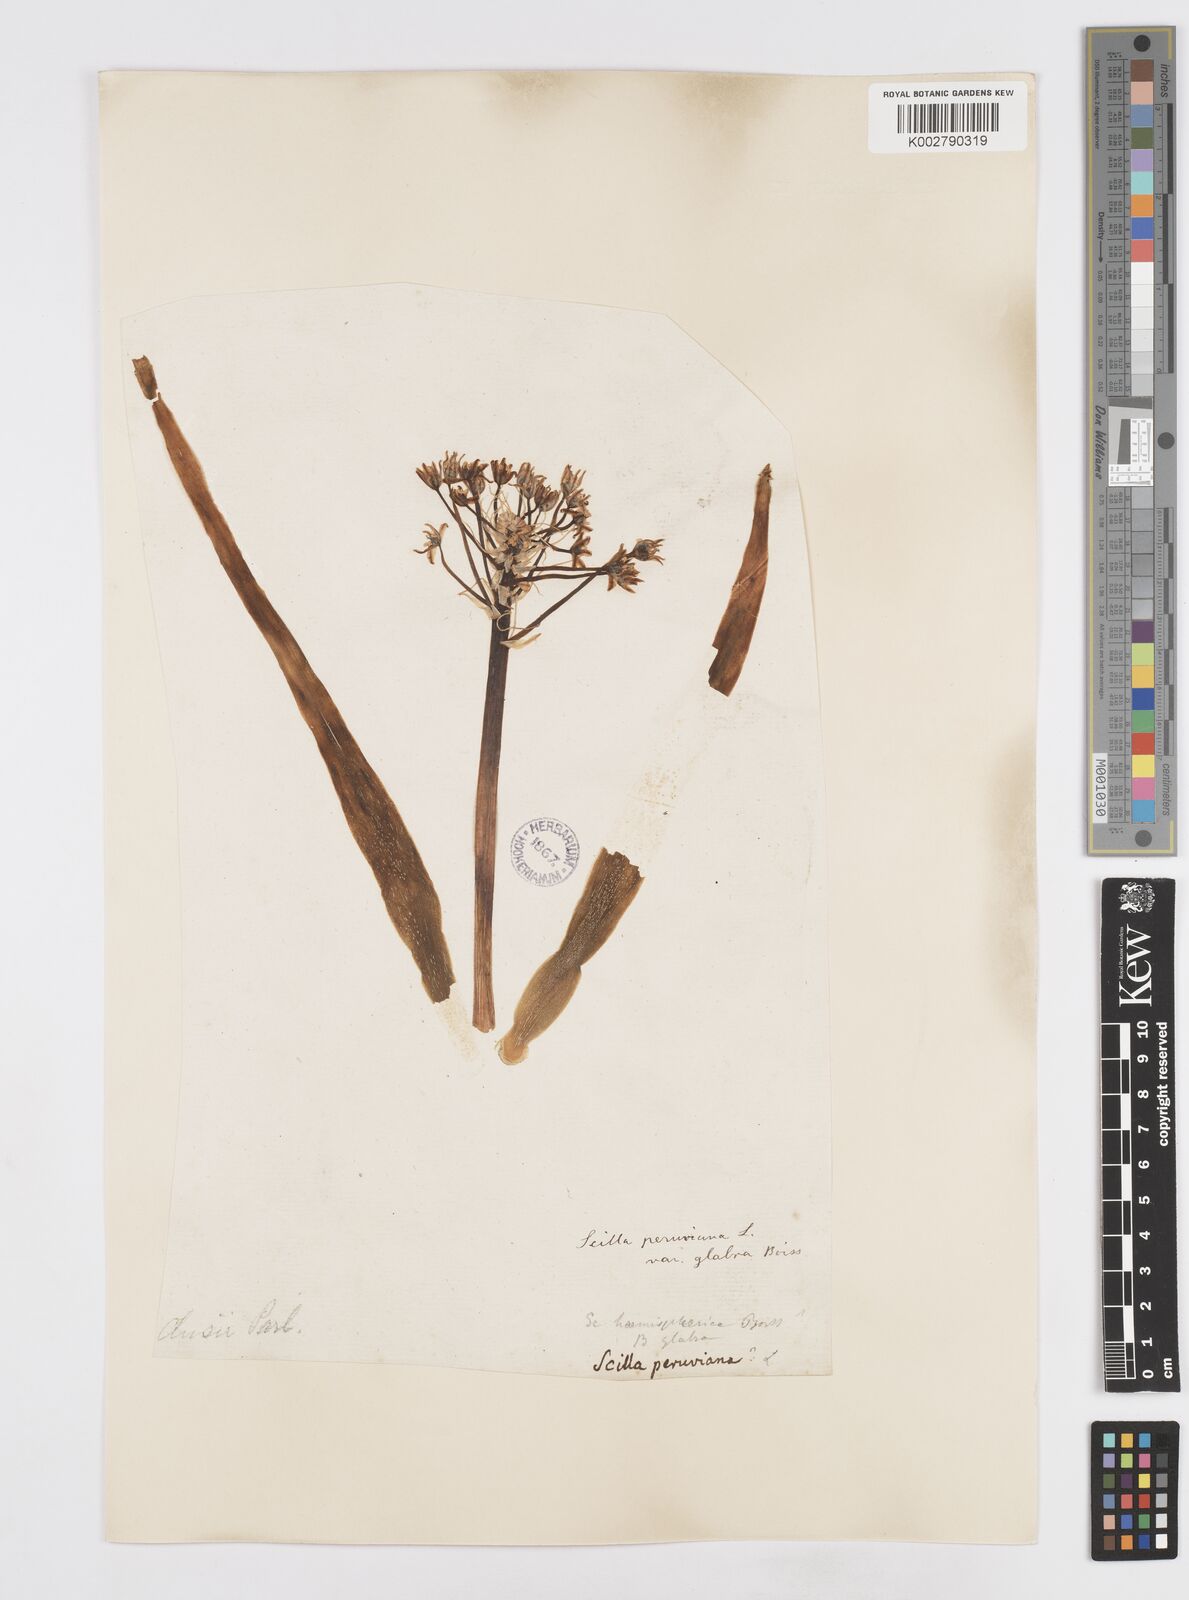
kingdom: Plantae
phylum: Tracheophyta
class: Liliopsida
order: Asparagales
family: Asparagaceae
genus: Scilla
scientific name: Scilla peruviana
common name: Portuguese squill
